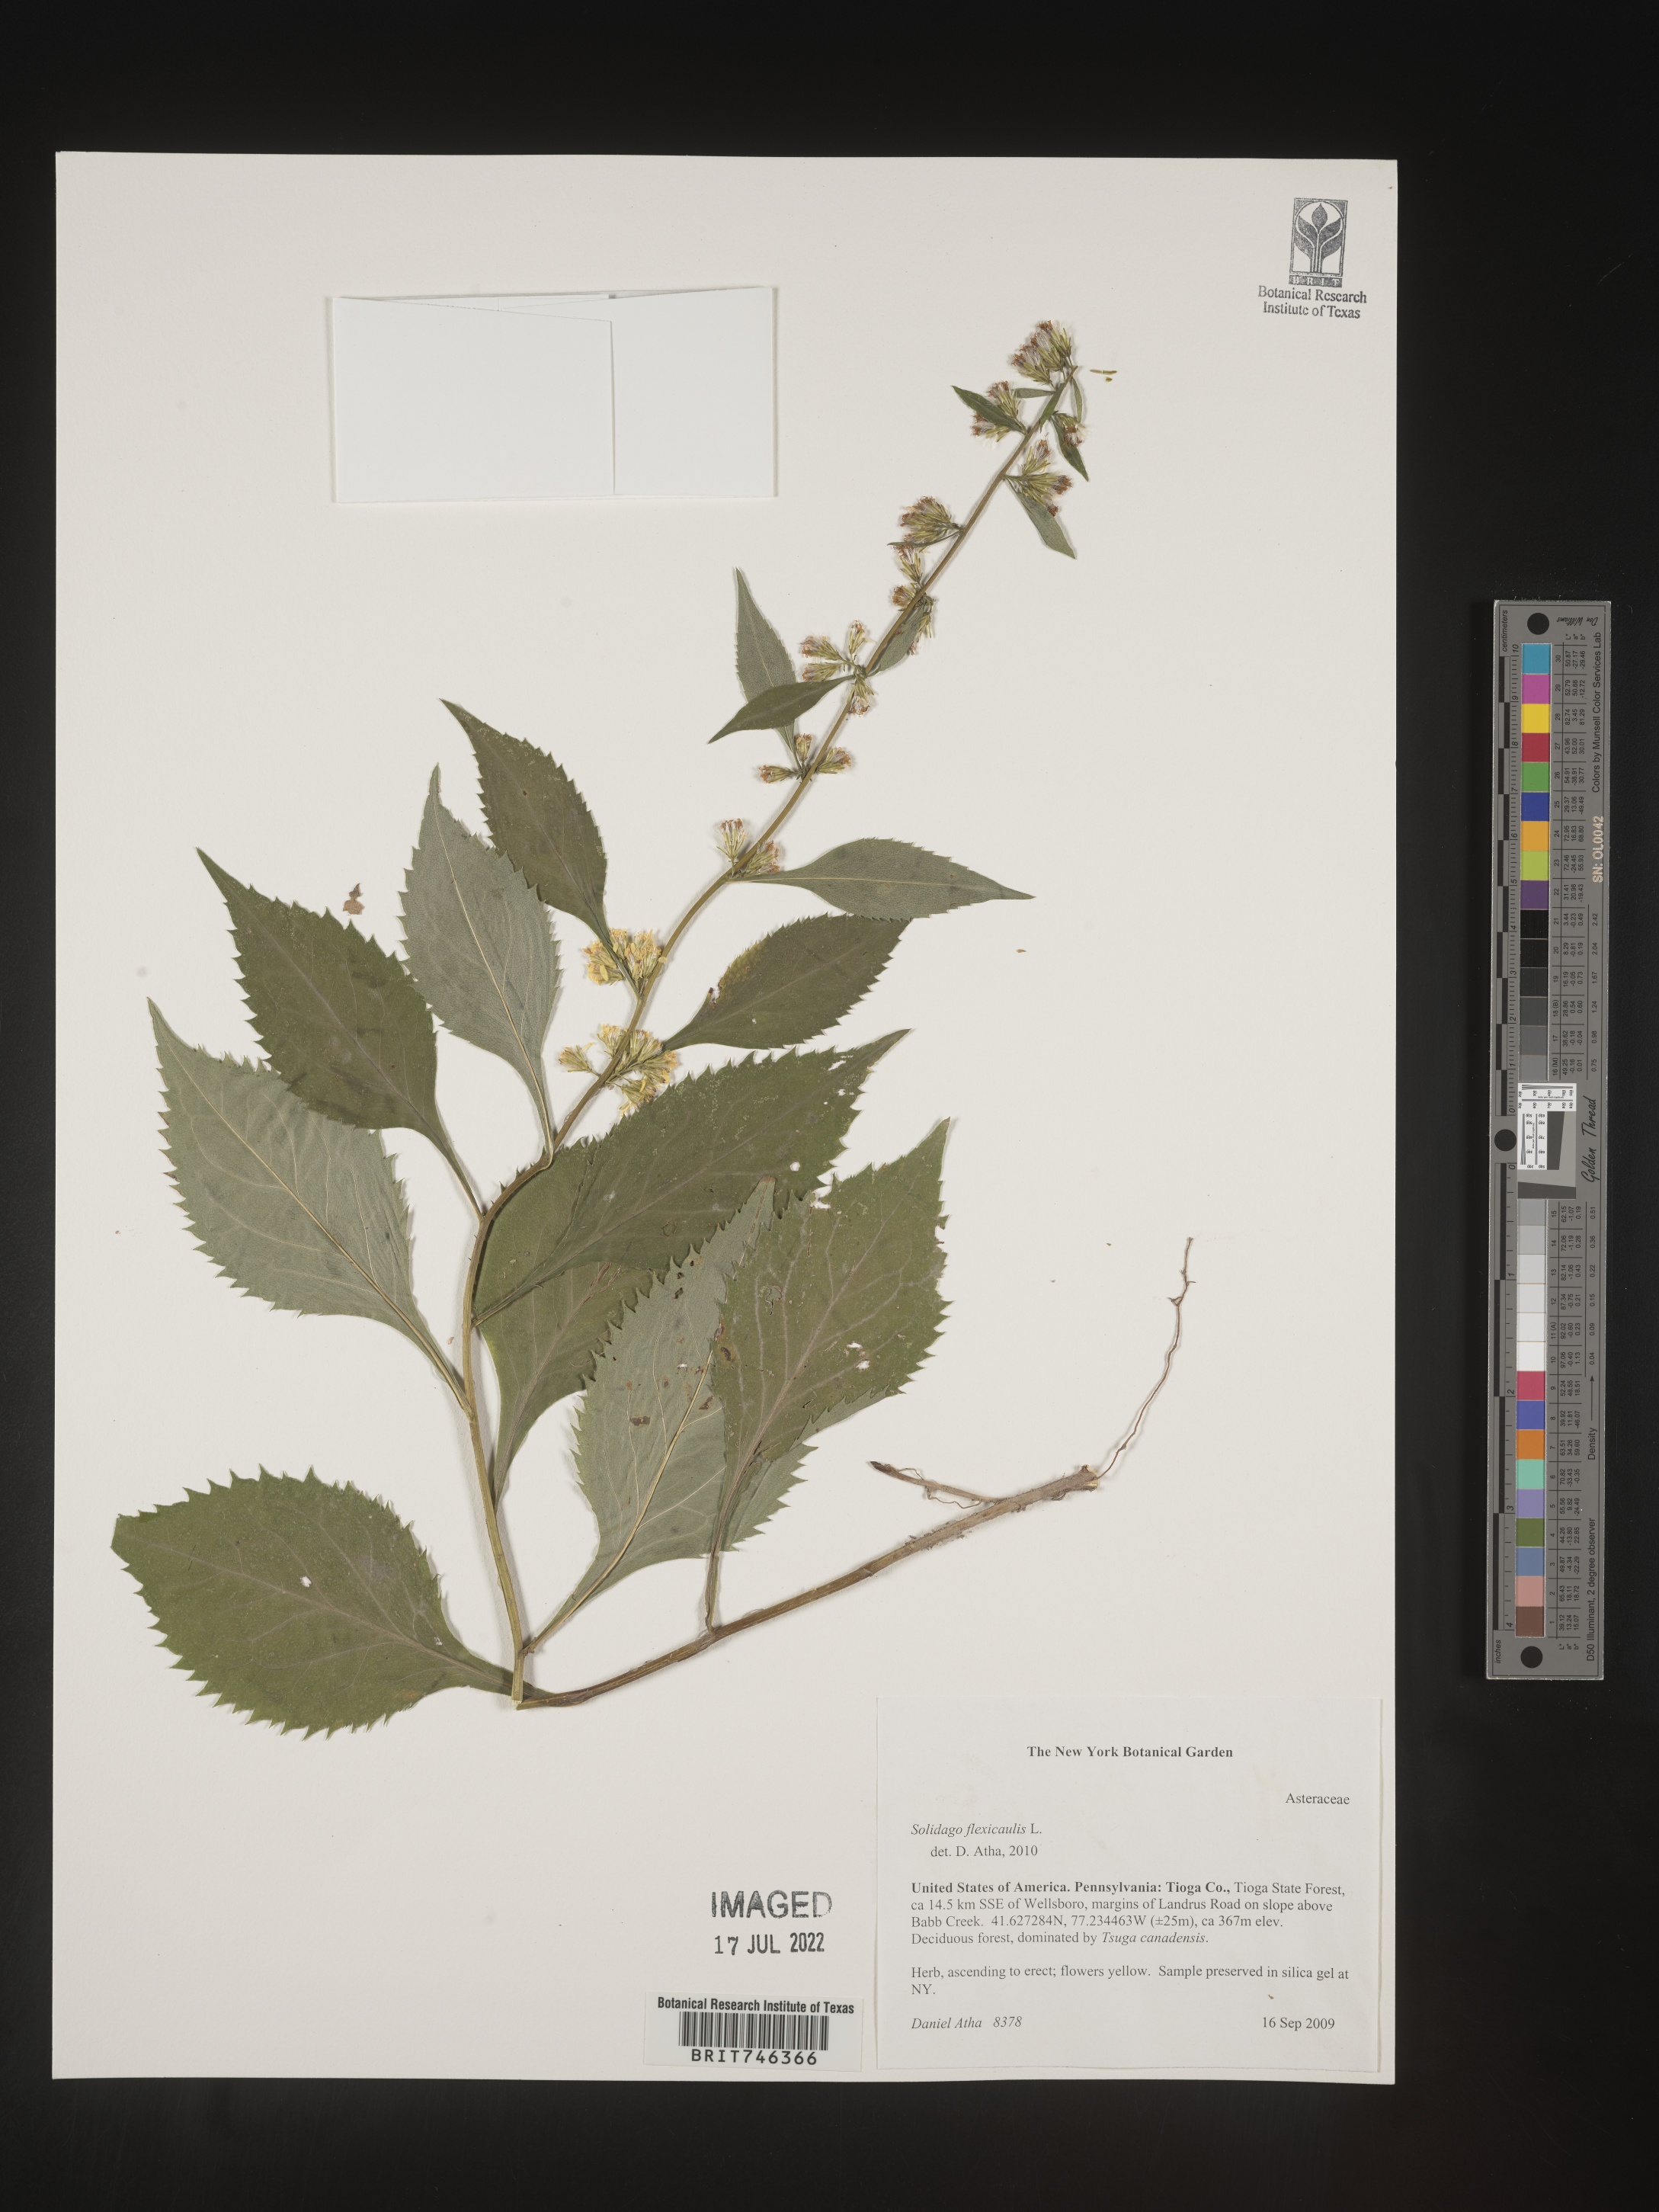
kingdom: Plantae
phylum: Tracheophyta
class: Magnoliopsida
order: Asterales
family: Asteraceae
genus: Solidago
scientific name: Solidago flexicaulis
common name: Zig-zag goldenrod
